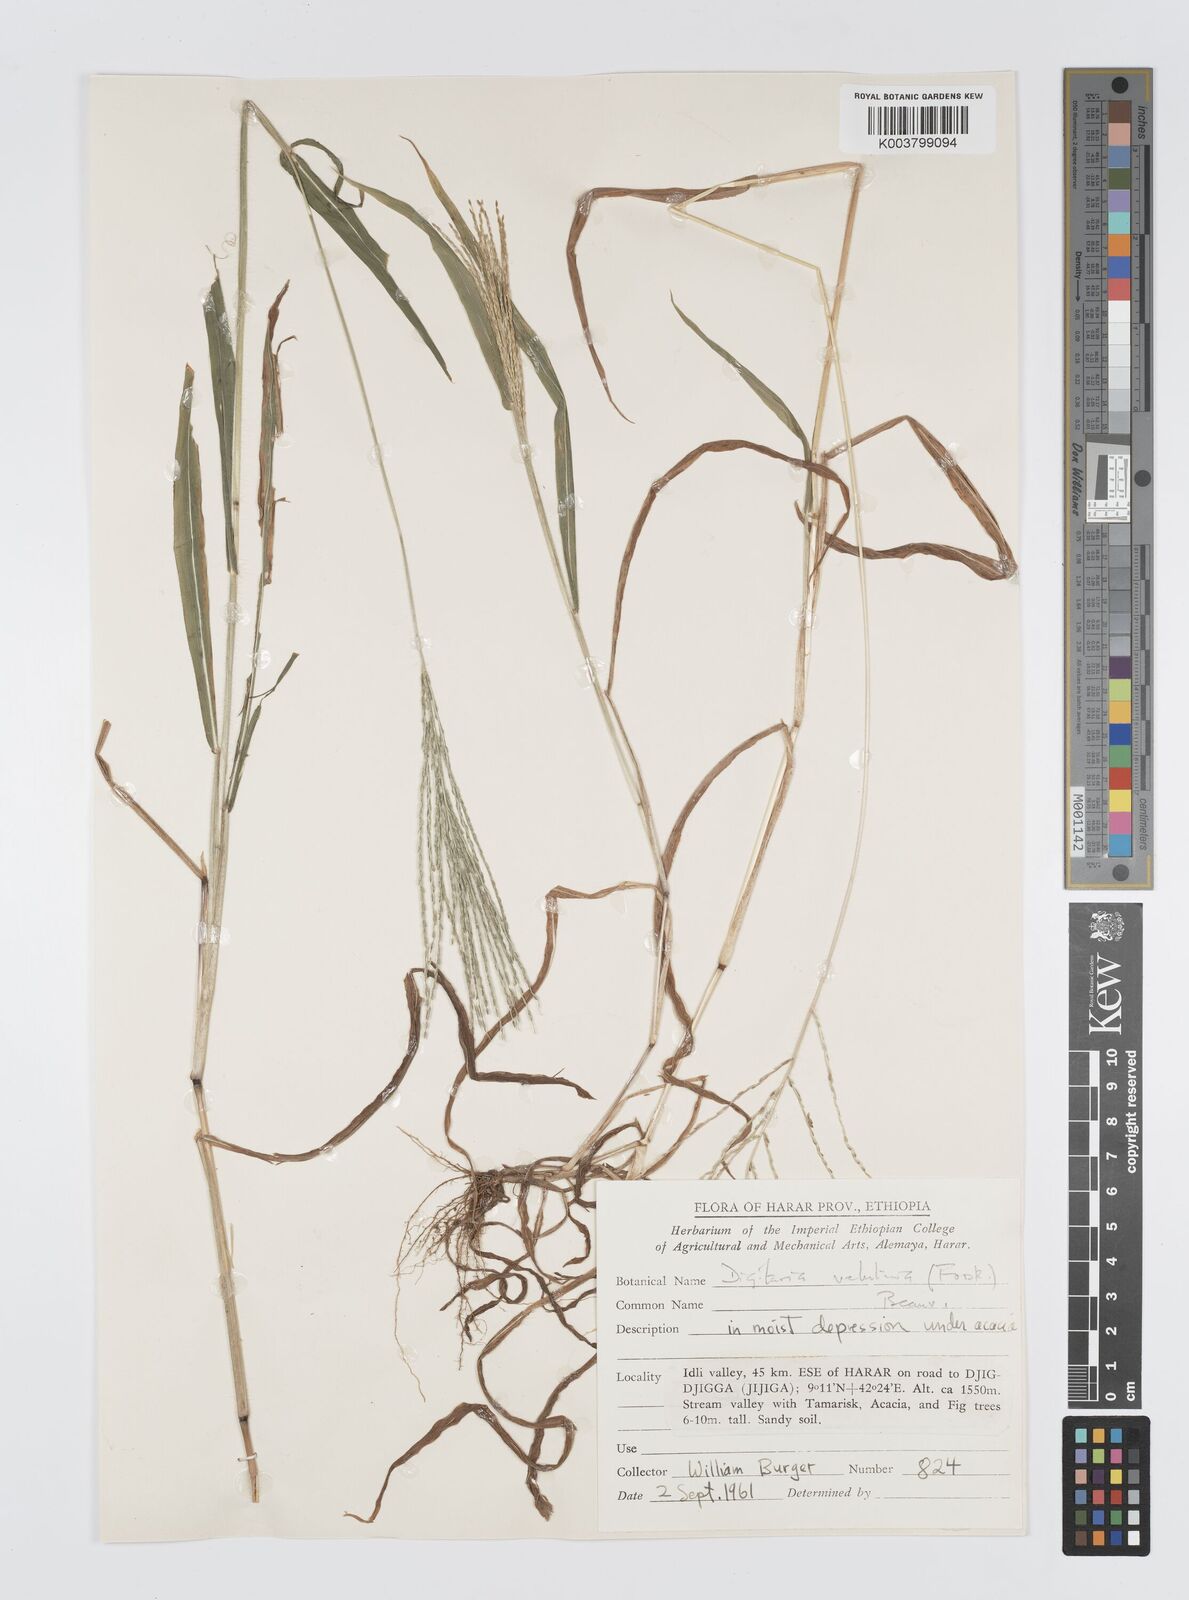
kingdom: Plantae
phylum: Tracheophyta
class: Liliopsida
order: Poales
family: Poaceae
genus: Digitaria
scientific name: Digitaria velutina
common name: Long-plume finger grass
